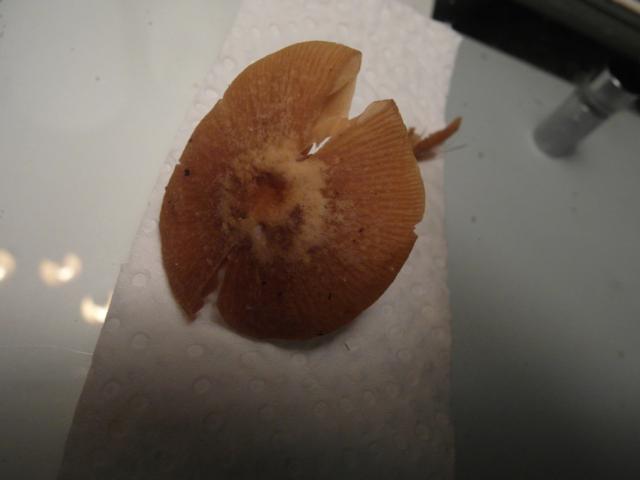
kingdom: Fungi
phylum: Basidiomycota
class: Agaricomycetes
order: Agaricales
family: Tubariaceae
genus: Tubaria
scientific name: Tubaria conspersa
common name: bleg fnughat
